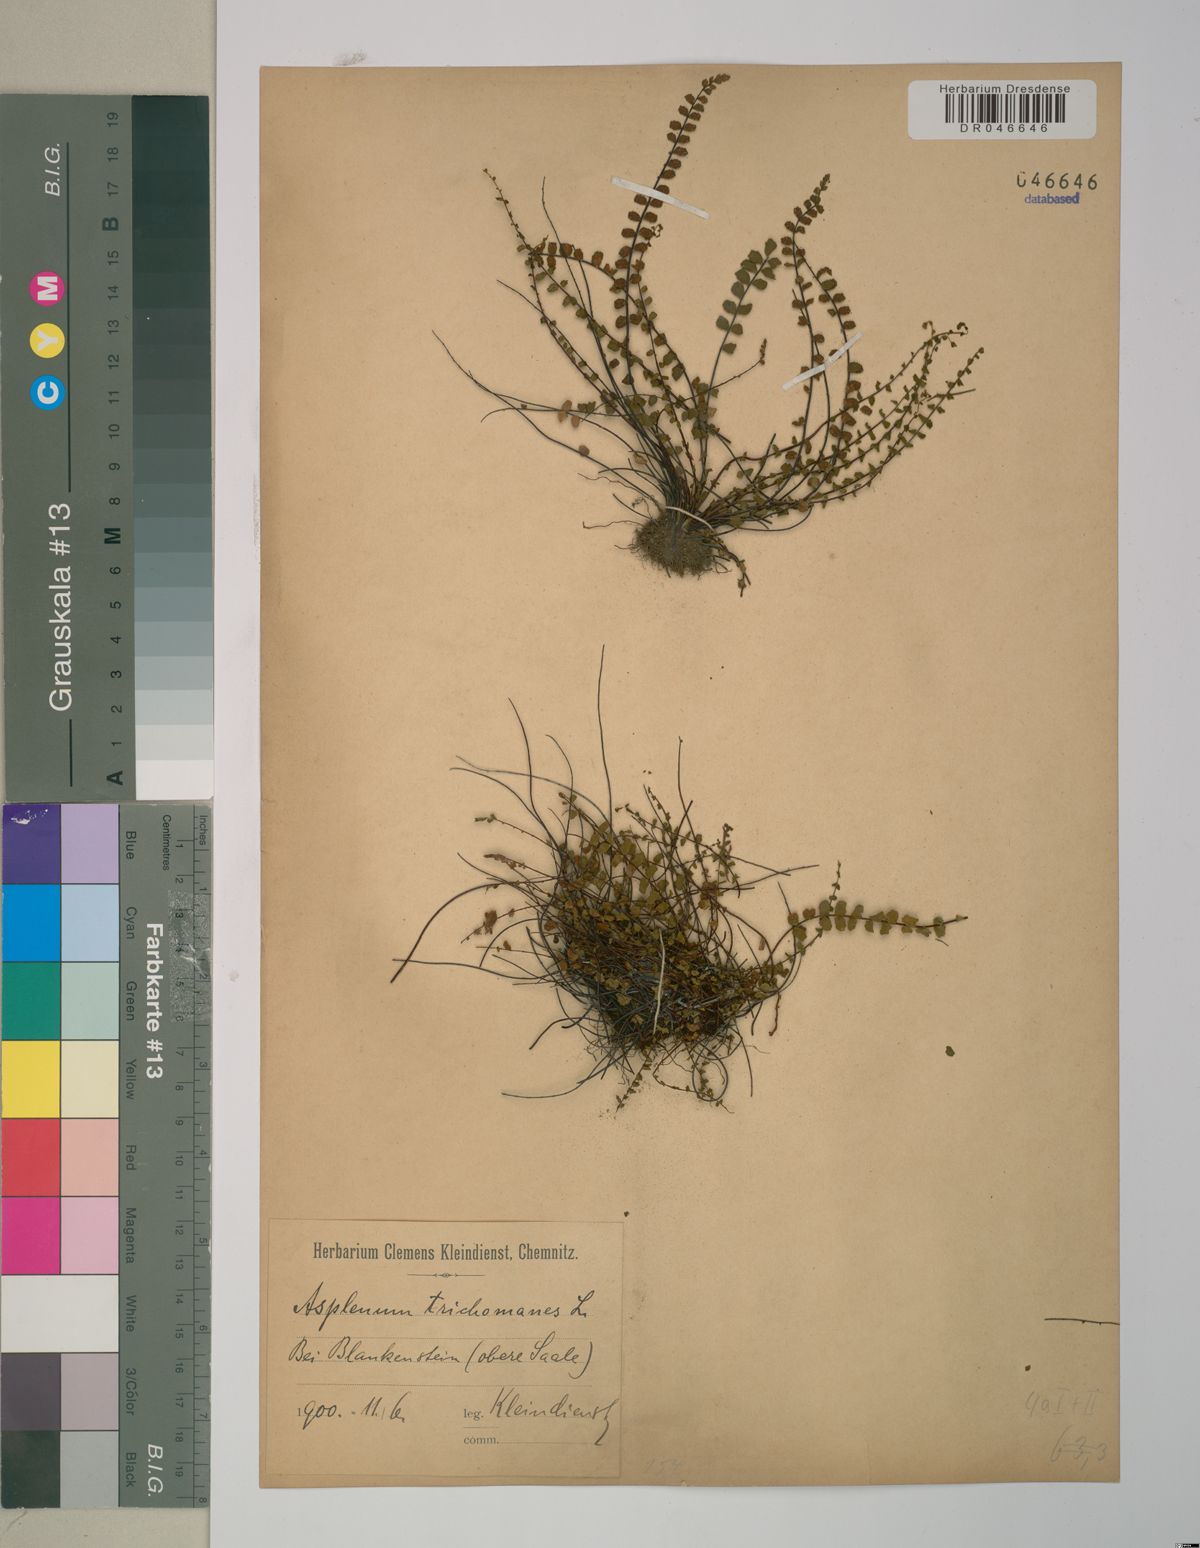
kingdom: Plantae
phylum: Tracheophyta
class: Polypodiopsida
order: Polypodiales
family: Aspleniaceae
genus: Asplenium
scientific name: Asplenium trichomanes
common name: Maidenhair spleenwort
